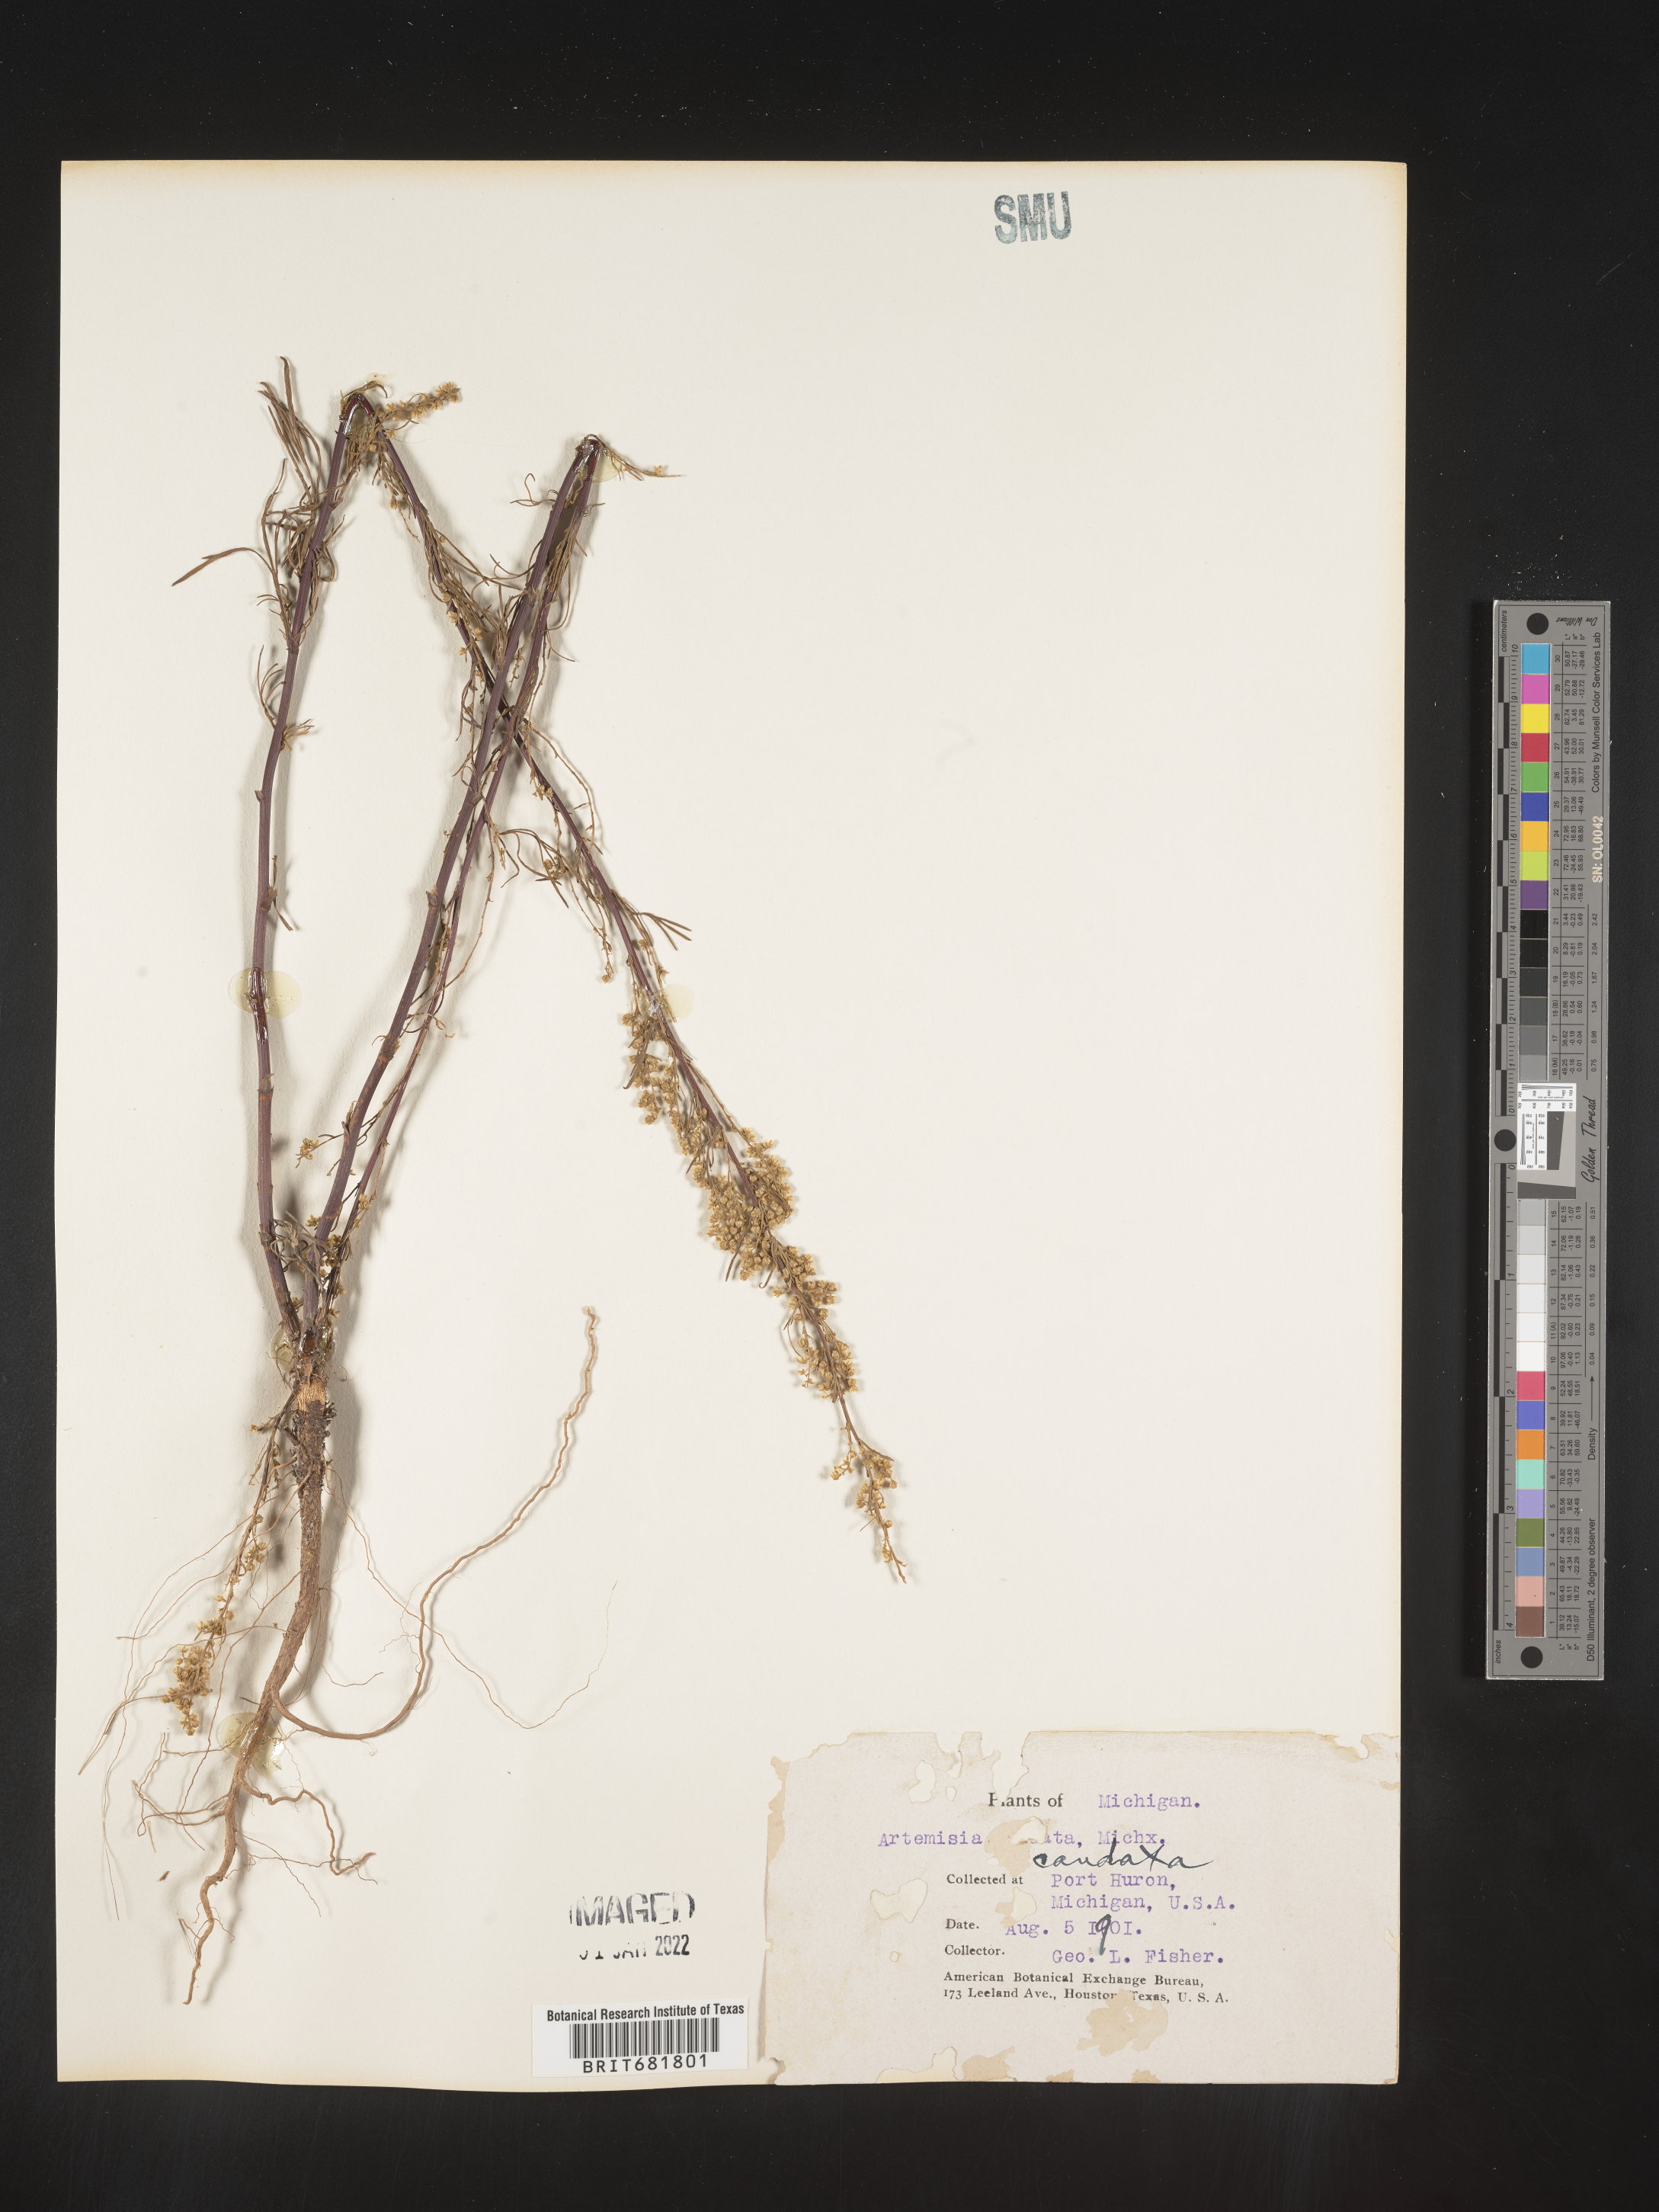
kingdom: Plantae
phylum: Tracheophyta
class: Magnoliopsida
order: Asterales
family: Asteraceae
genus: Artemisia
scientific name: Artemisia campestris
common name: Field wormwood
